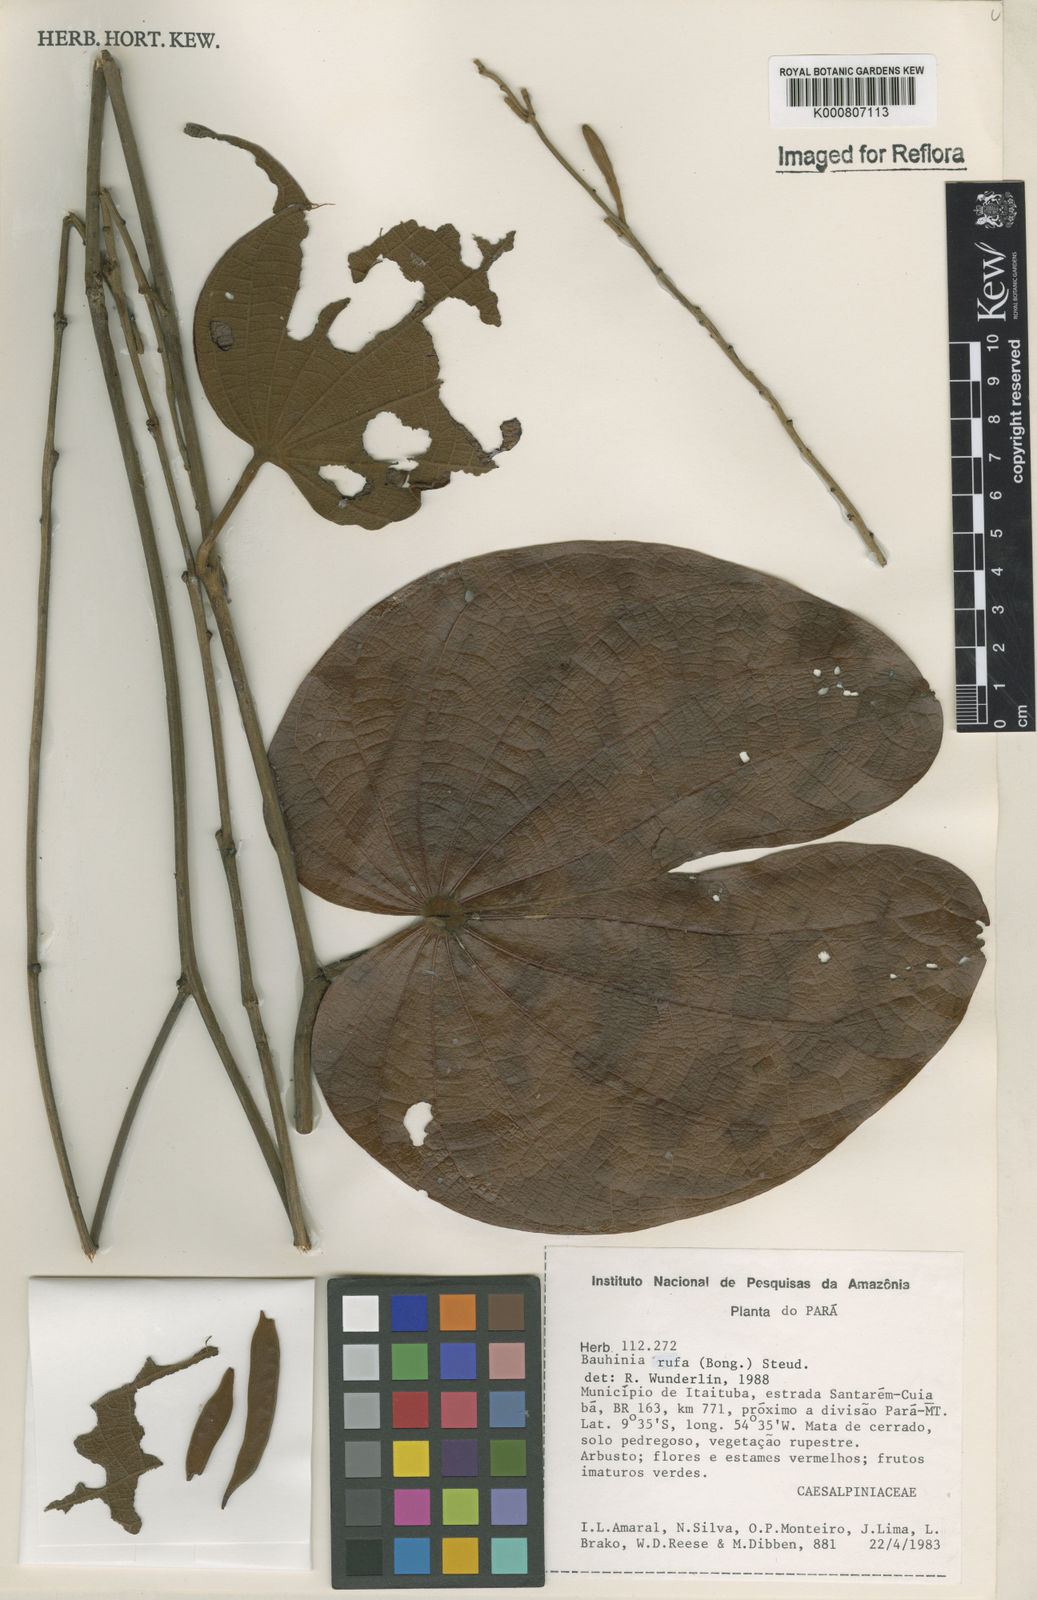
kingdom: Plantae
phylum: Tracheophyta
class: Magnoliopsida
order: Fabales
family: Fabaceae
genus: Bauhinia
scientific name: Bauhinia rufa
